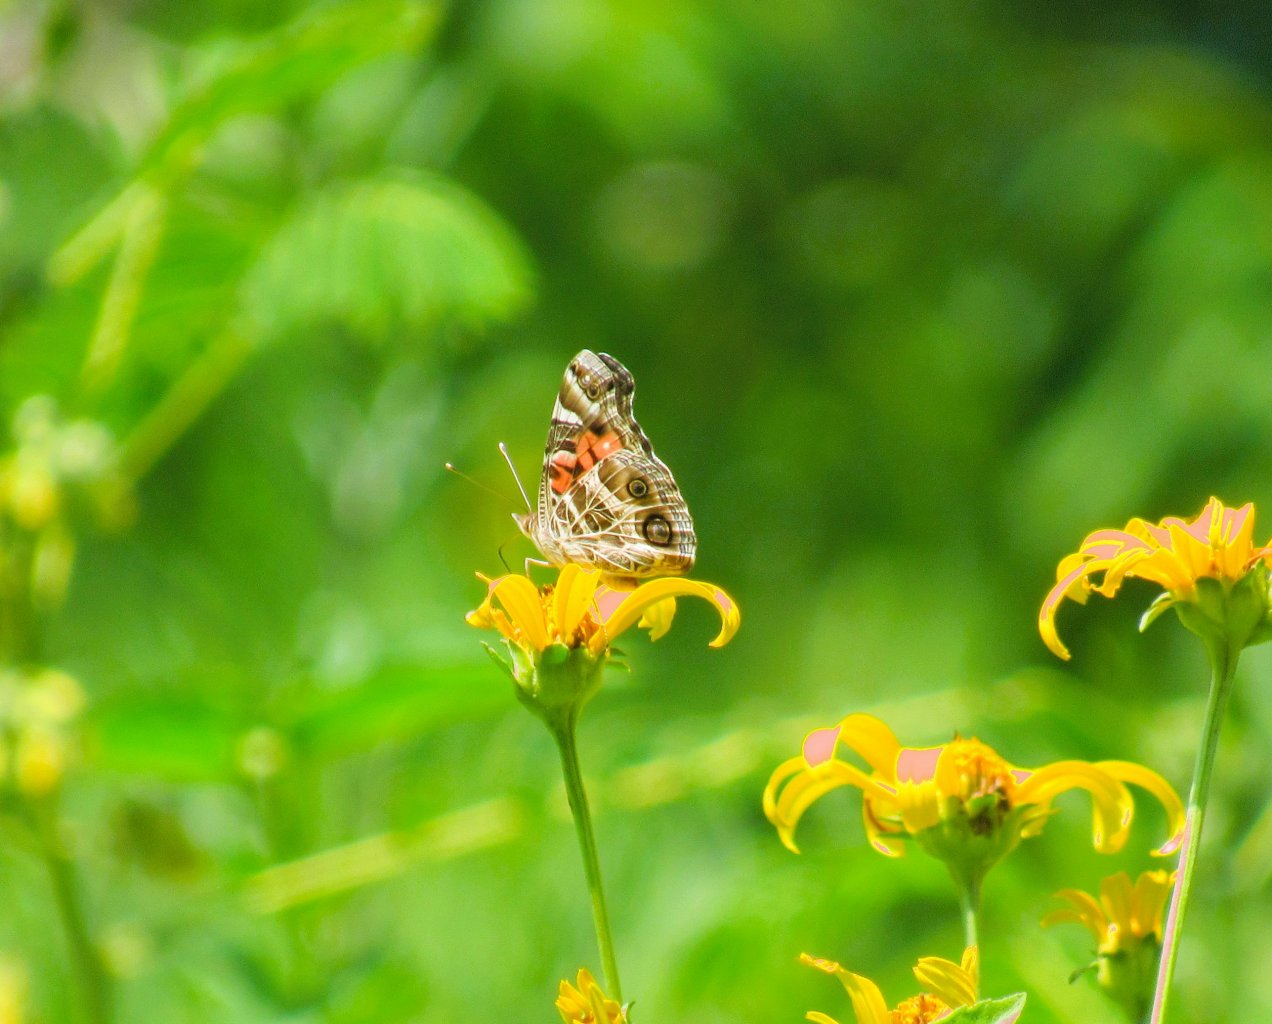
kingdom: Animalia
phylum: Arthropoda
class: Insecta
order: Lepidoptera
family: Nymphalidae
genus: Vanessa
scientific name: Vanessa virginiensis
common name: American Lady
